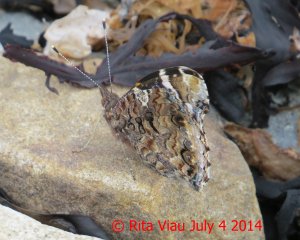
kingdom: Animalia
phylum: Arthropoda
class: Insecta
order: Lepidoptera
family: Nymphalidae
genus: Vanessa
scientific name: Vanessa atalanta
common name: Red Admiral
